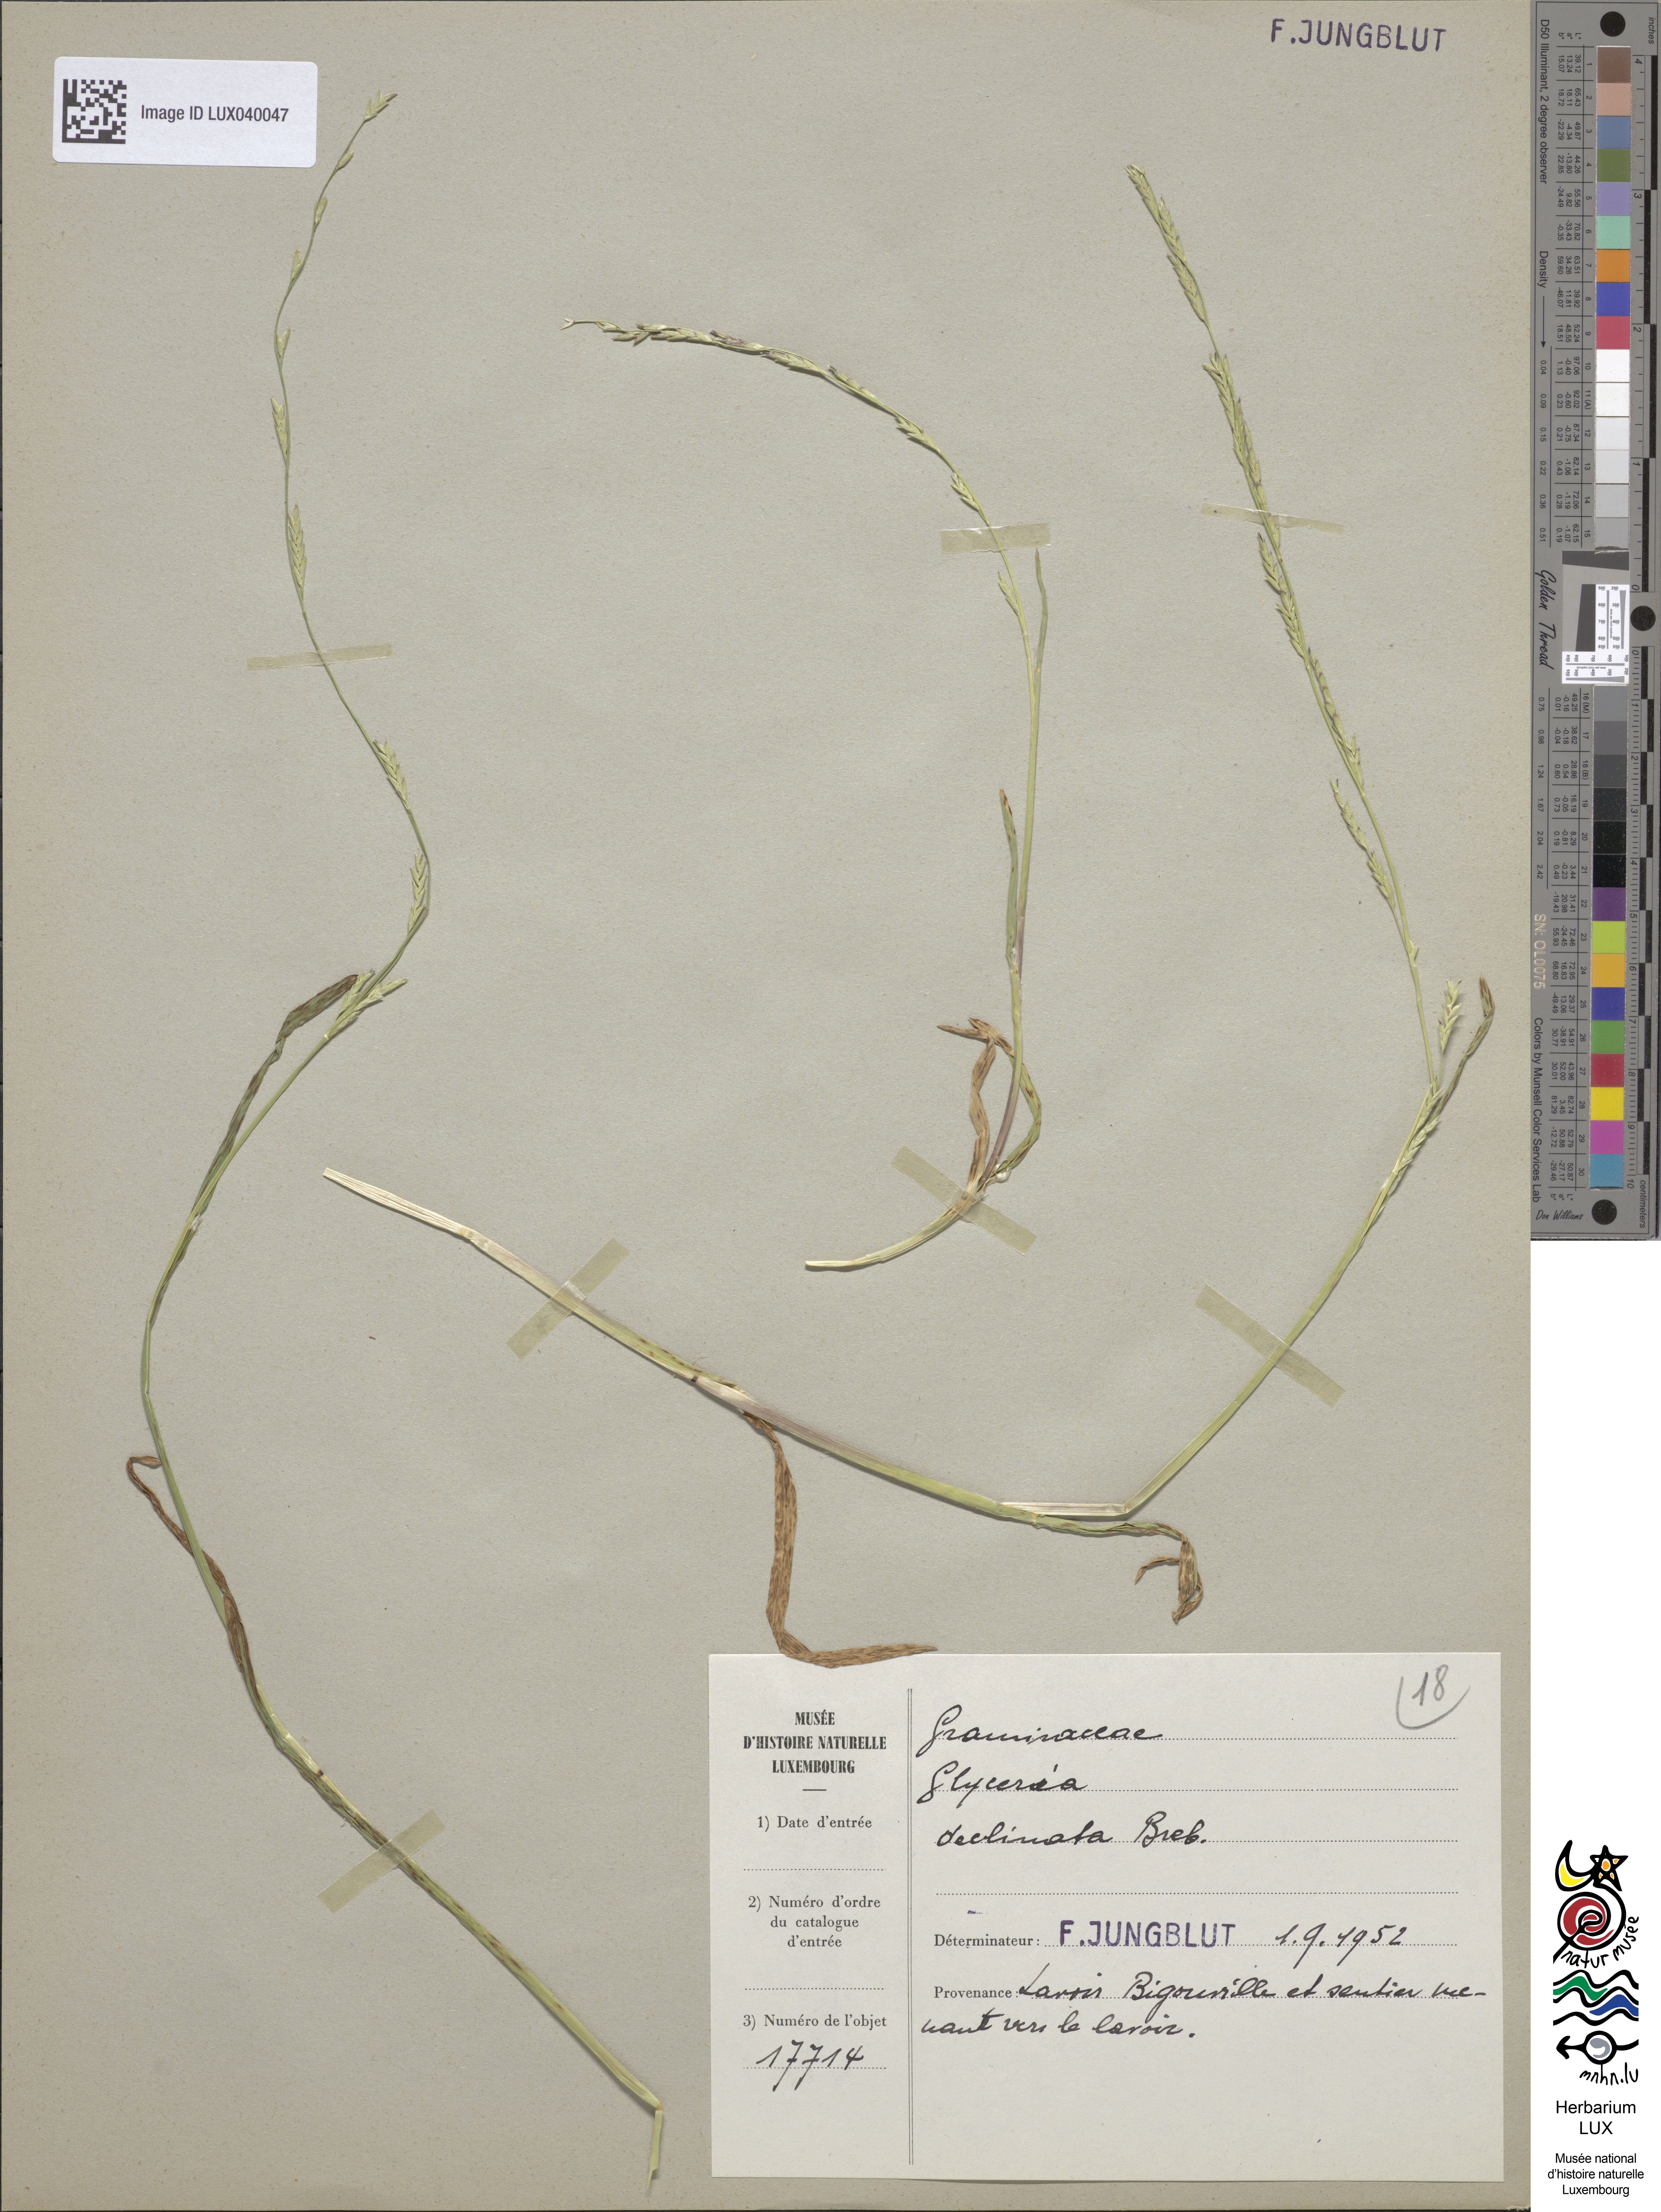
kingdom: Plantae
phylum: Tracheophyta
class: Liliopsida
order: Poales
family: Poaceae
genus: Glyceria
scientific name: Glyceria declinata
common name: Small sweet-grass
